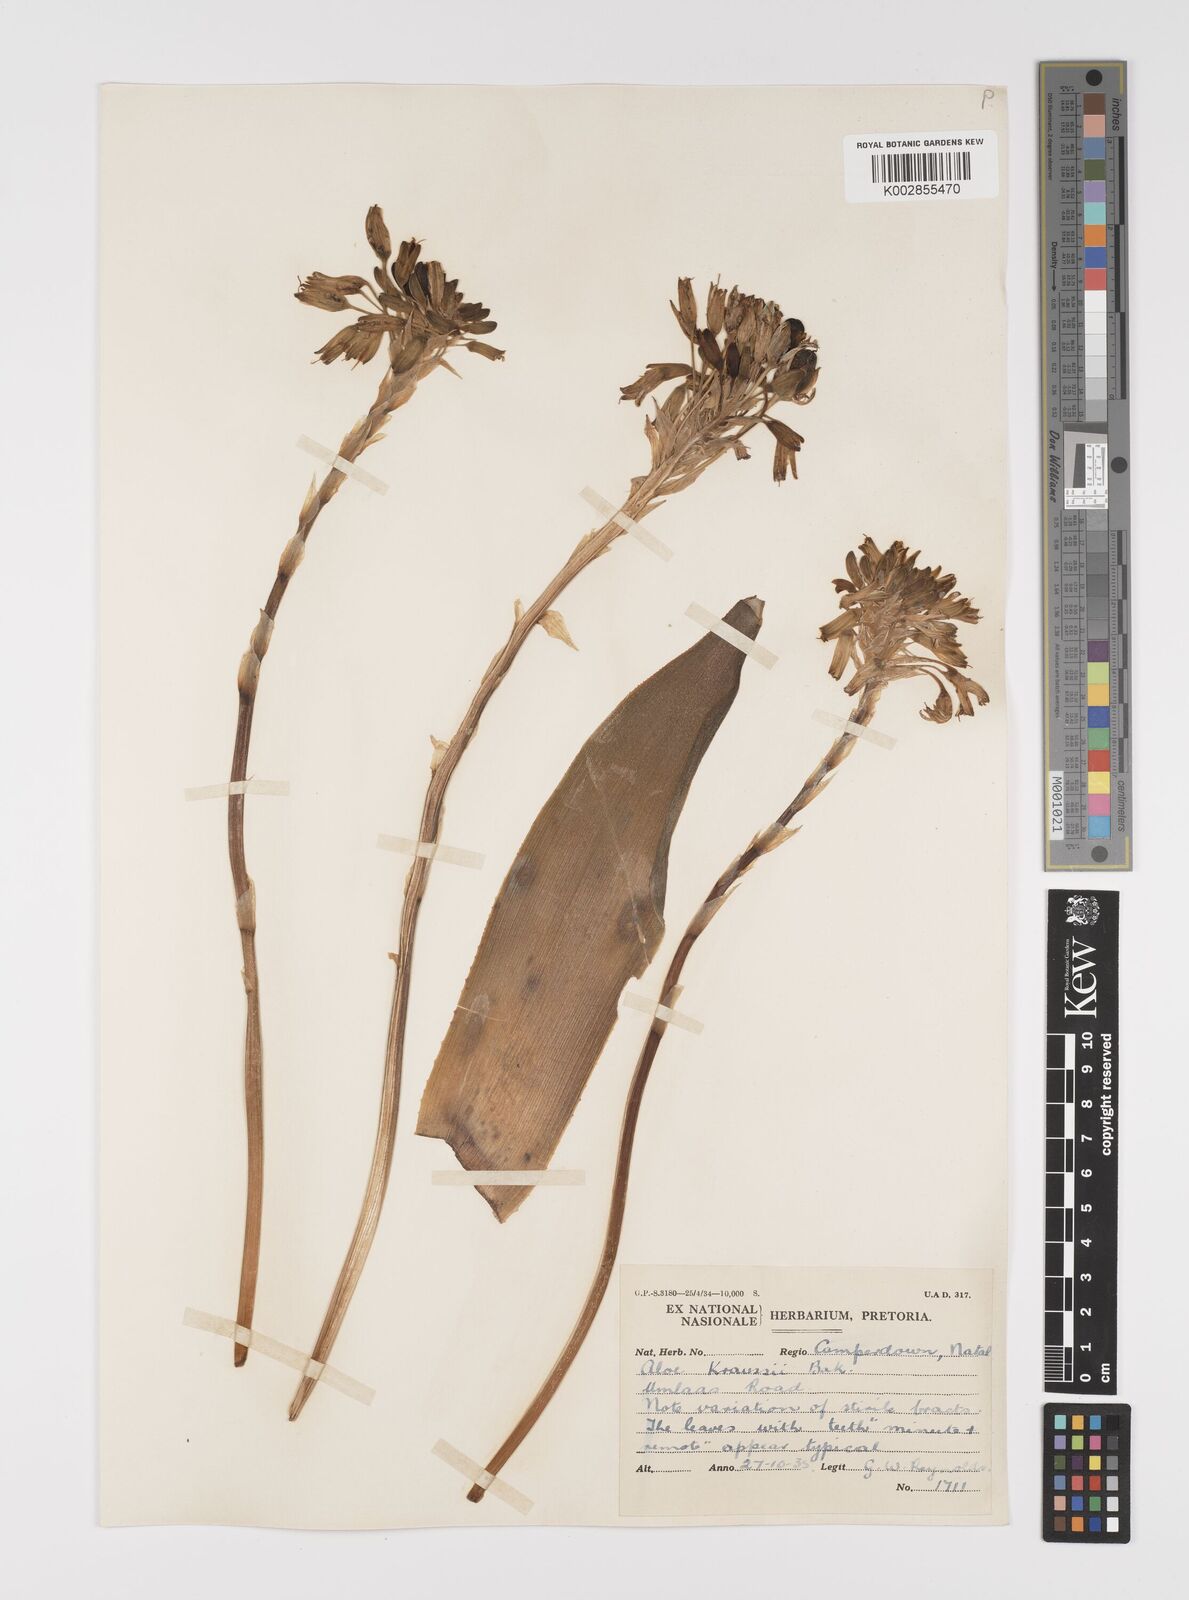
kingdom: Plantae
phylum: Tracheophyta
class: Liliopsida
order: Asparagales
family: Asphodelaceae
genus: Aloe
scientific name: Aloe kraussii
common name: Broad-leaved yellow grass aloe
